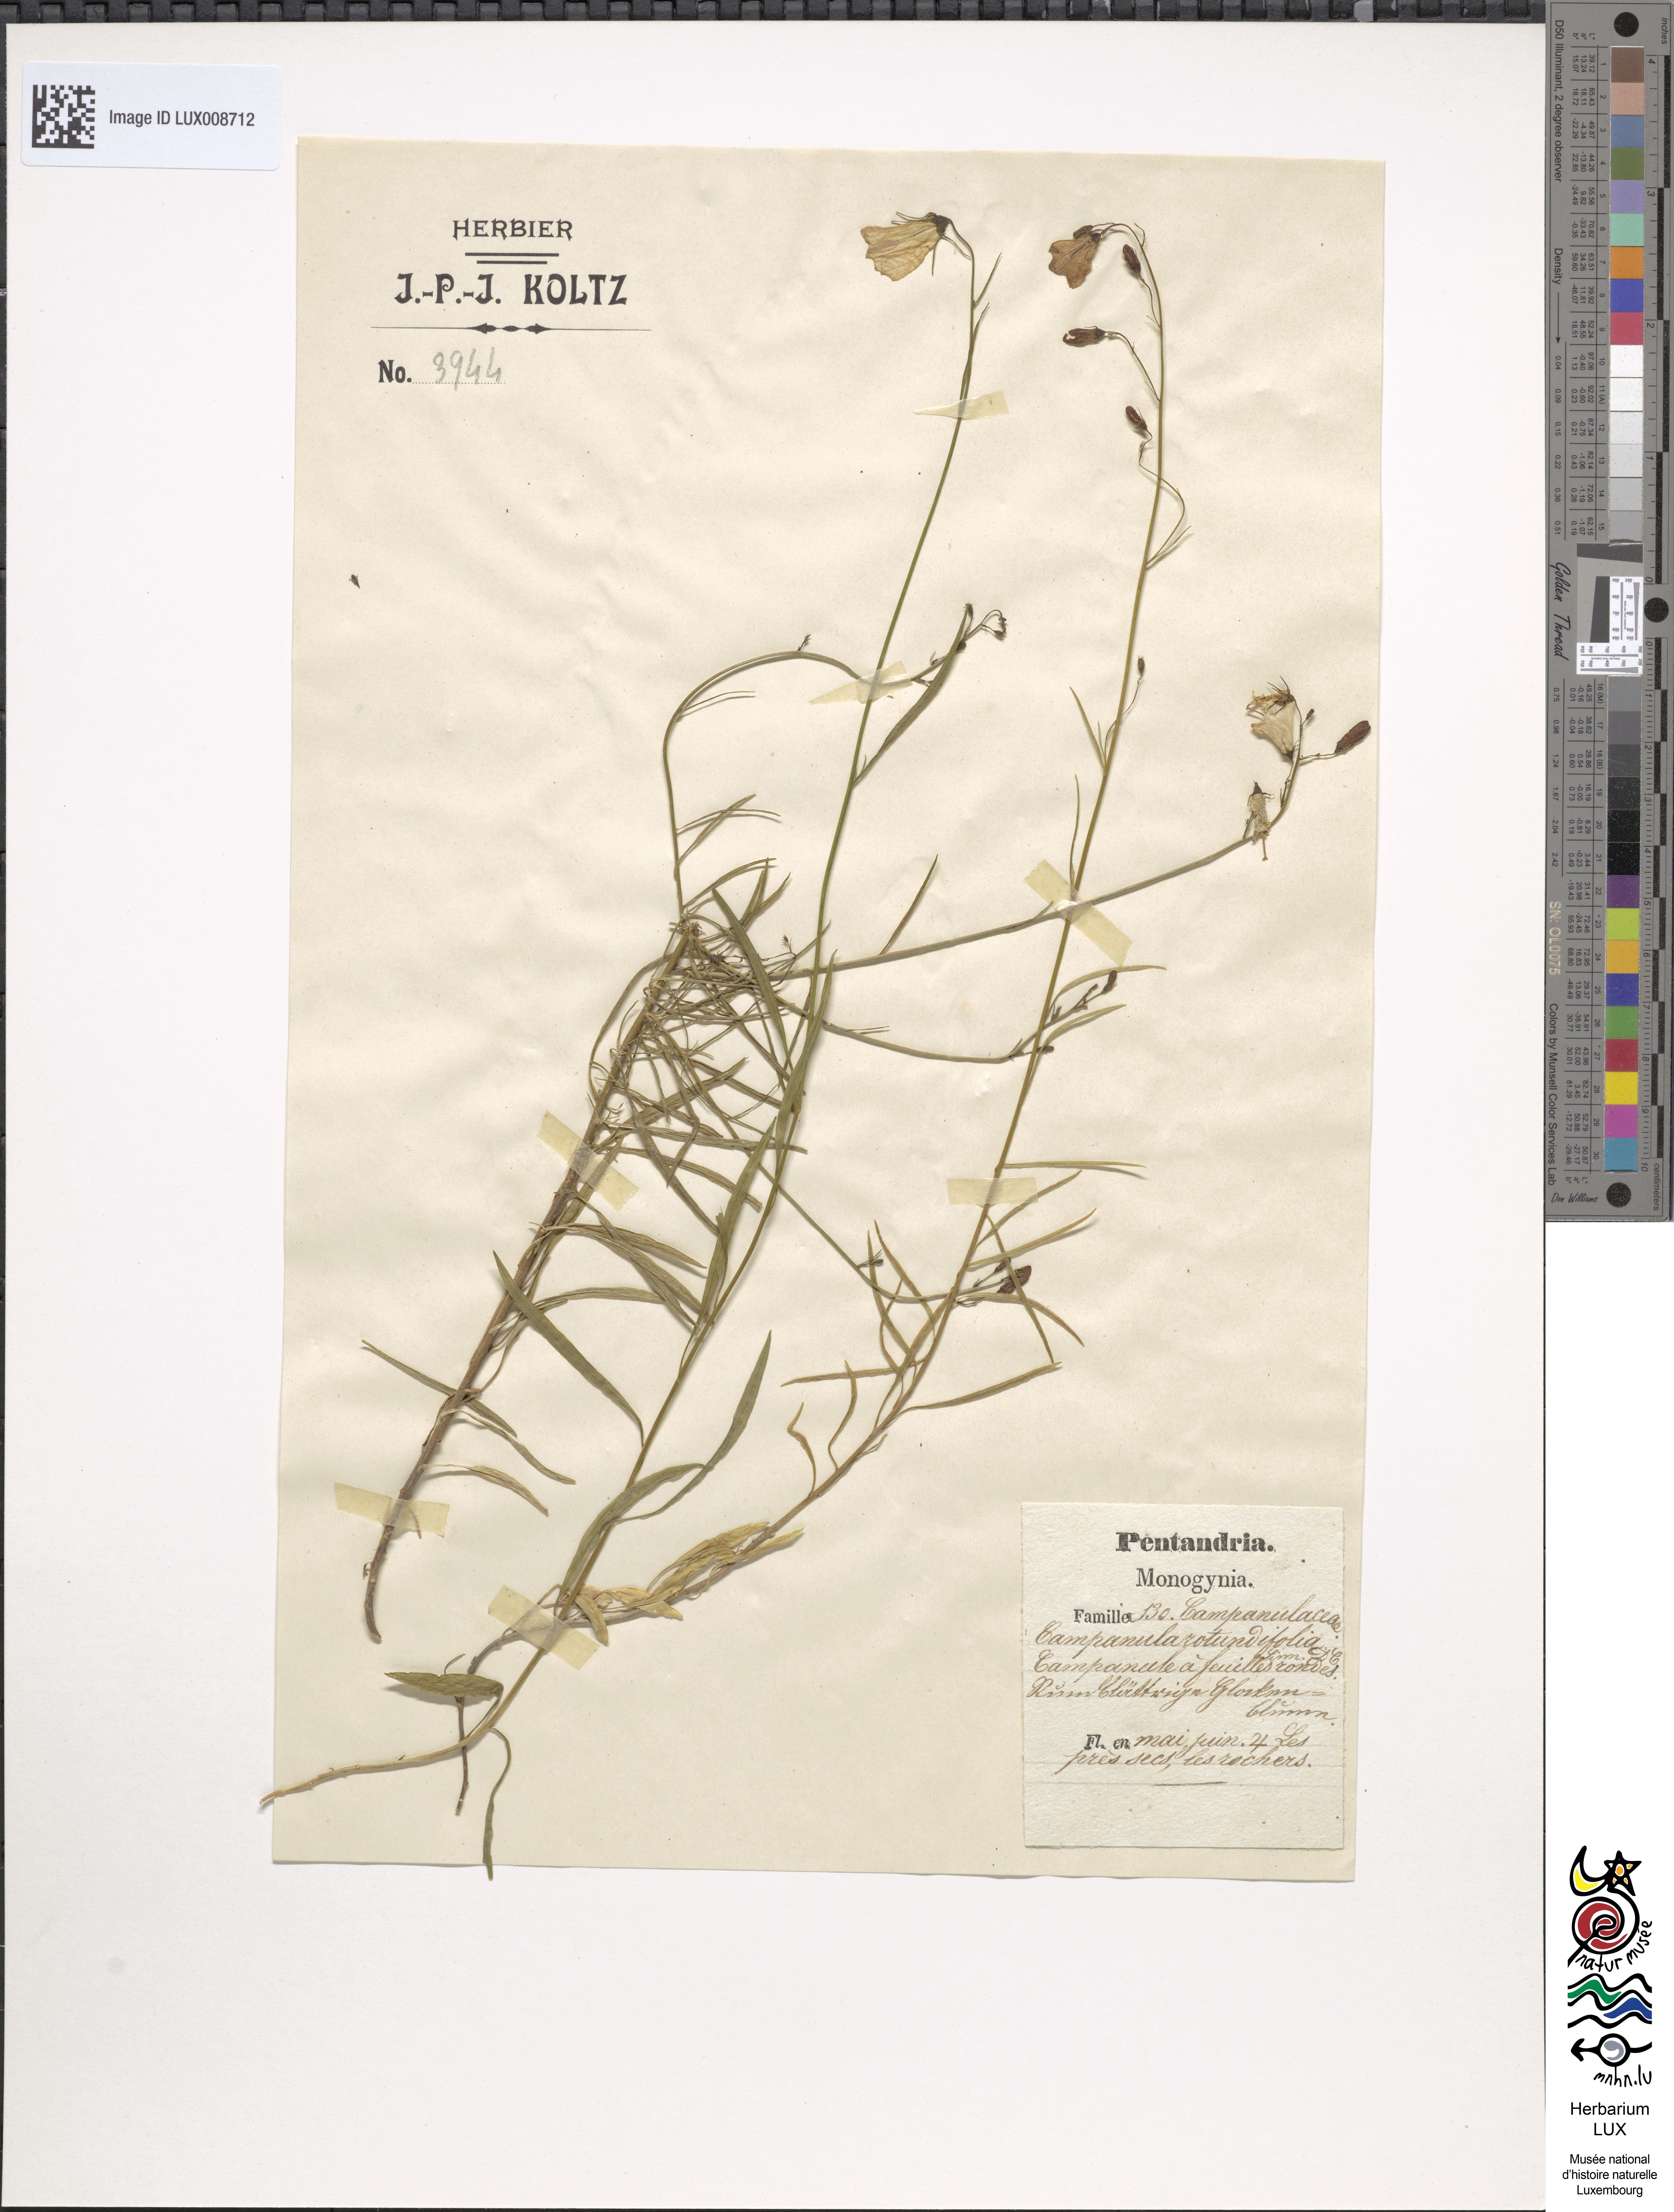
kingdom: Plantae
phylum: Tracheophyta
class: Magnoliopsida
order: Asterales
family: Campanulaceae
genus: Campanula
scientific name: Campanula rotundifolia
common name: Harebell
